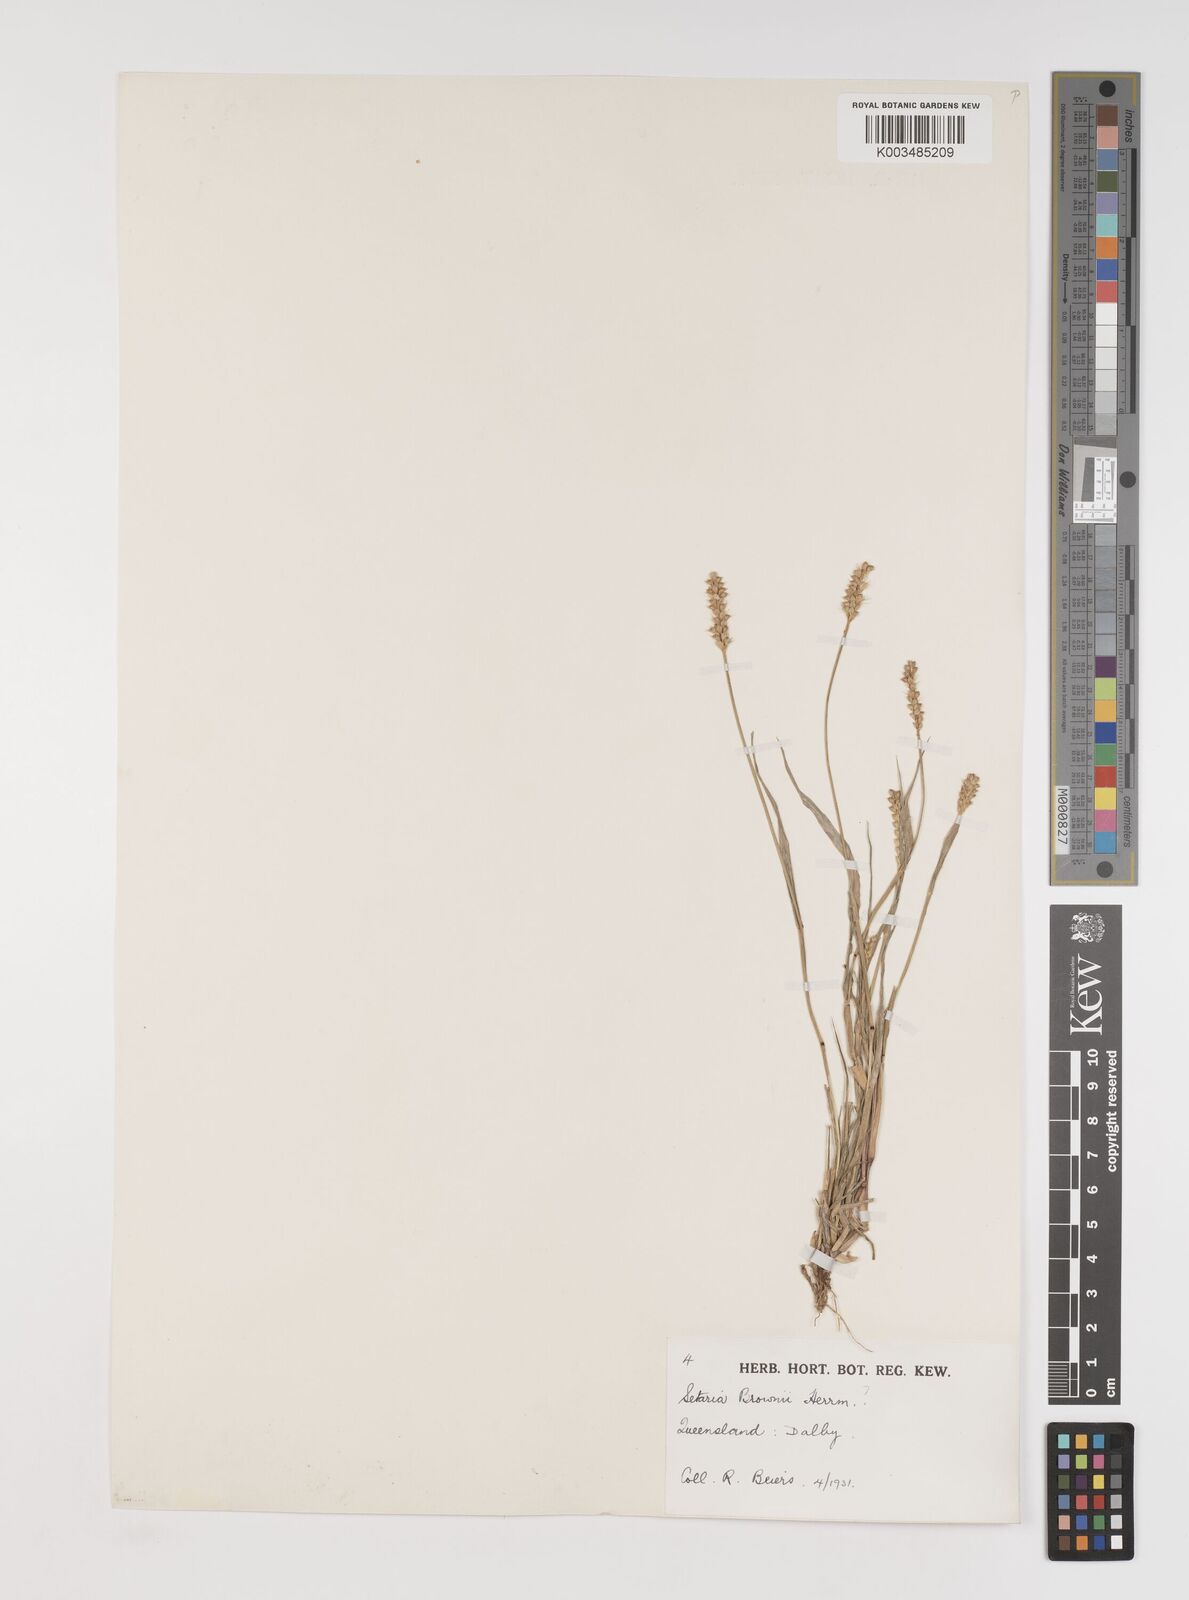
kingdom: Plantae
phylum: Tracheophyta
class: Liliopsida
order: Poales
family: Poaceae
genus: Setaria
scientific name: Setaria surgens
